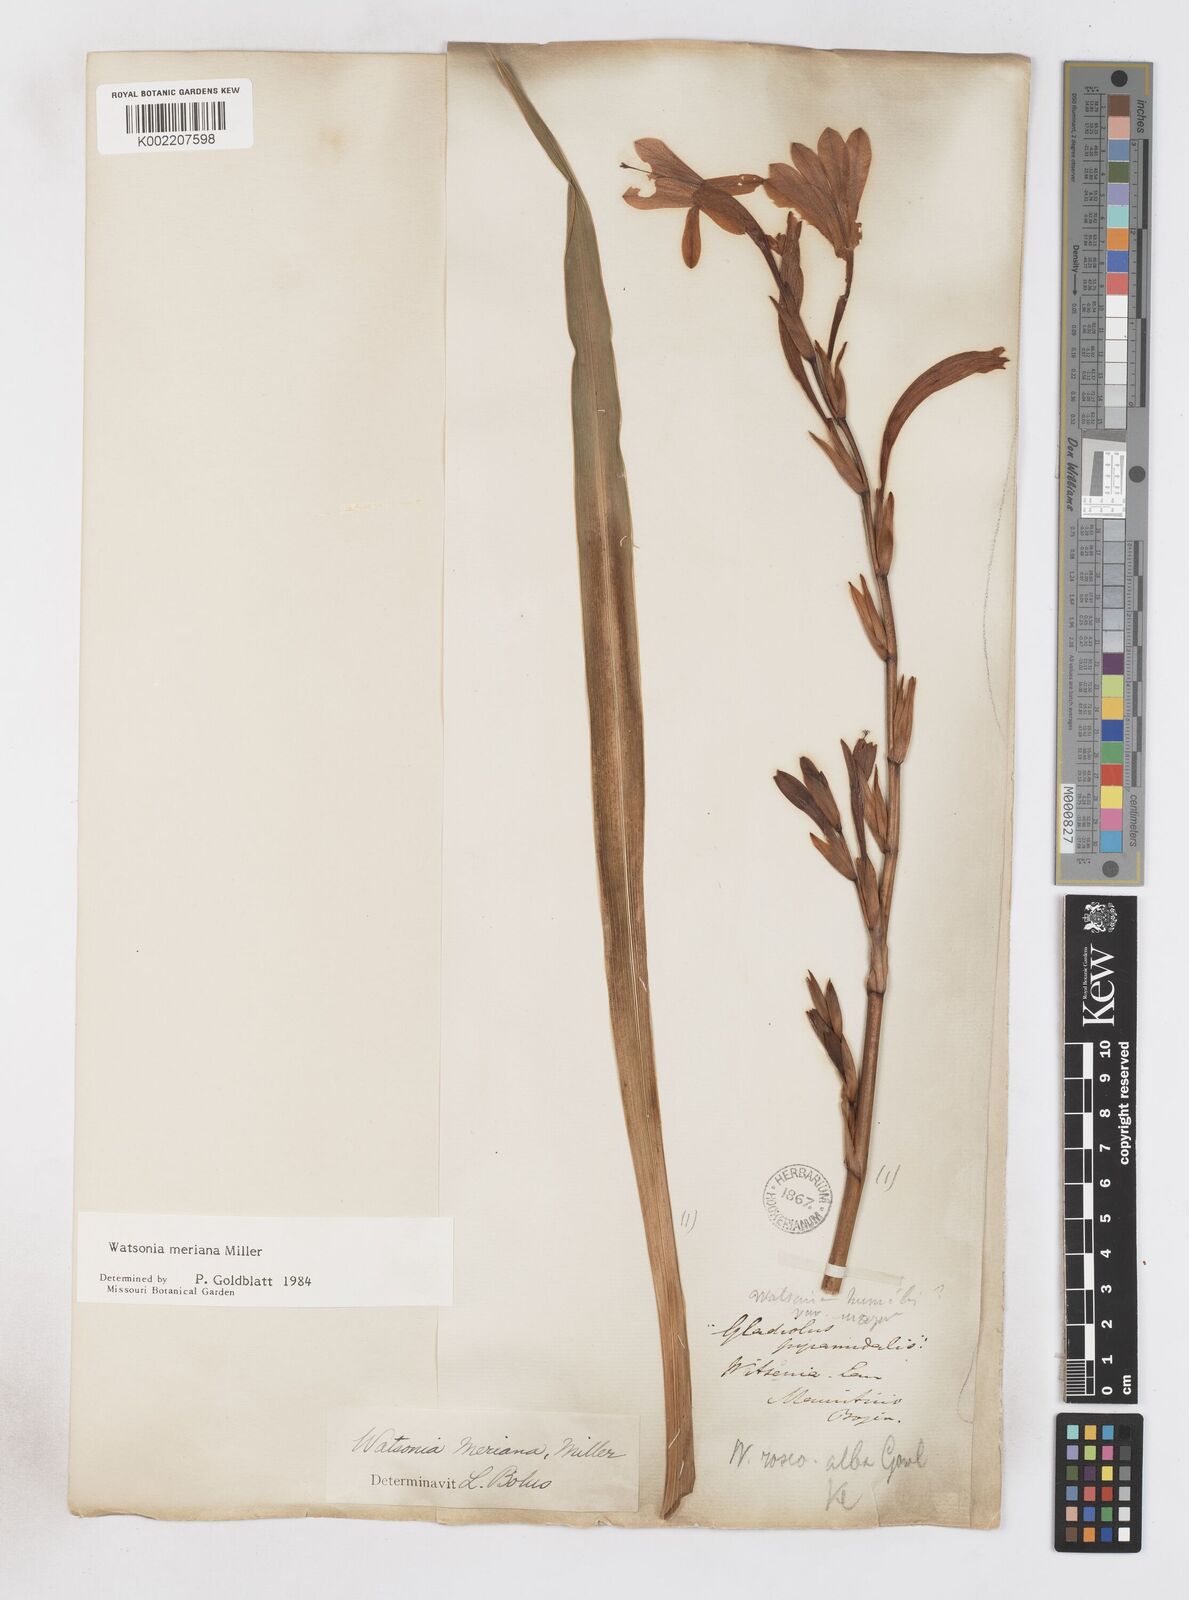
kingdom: Plantae
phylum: Tracheophyta
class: Liliopsida
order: Asparagales
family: Iridaceae
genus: Watsonia
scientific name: Watsonia meriana
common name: Bulbil bugle-lily
